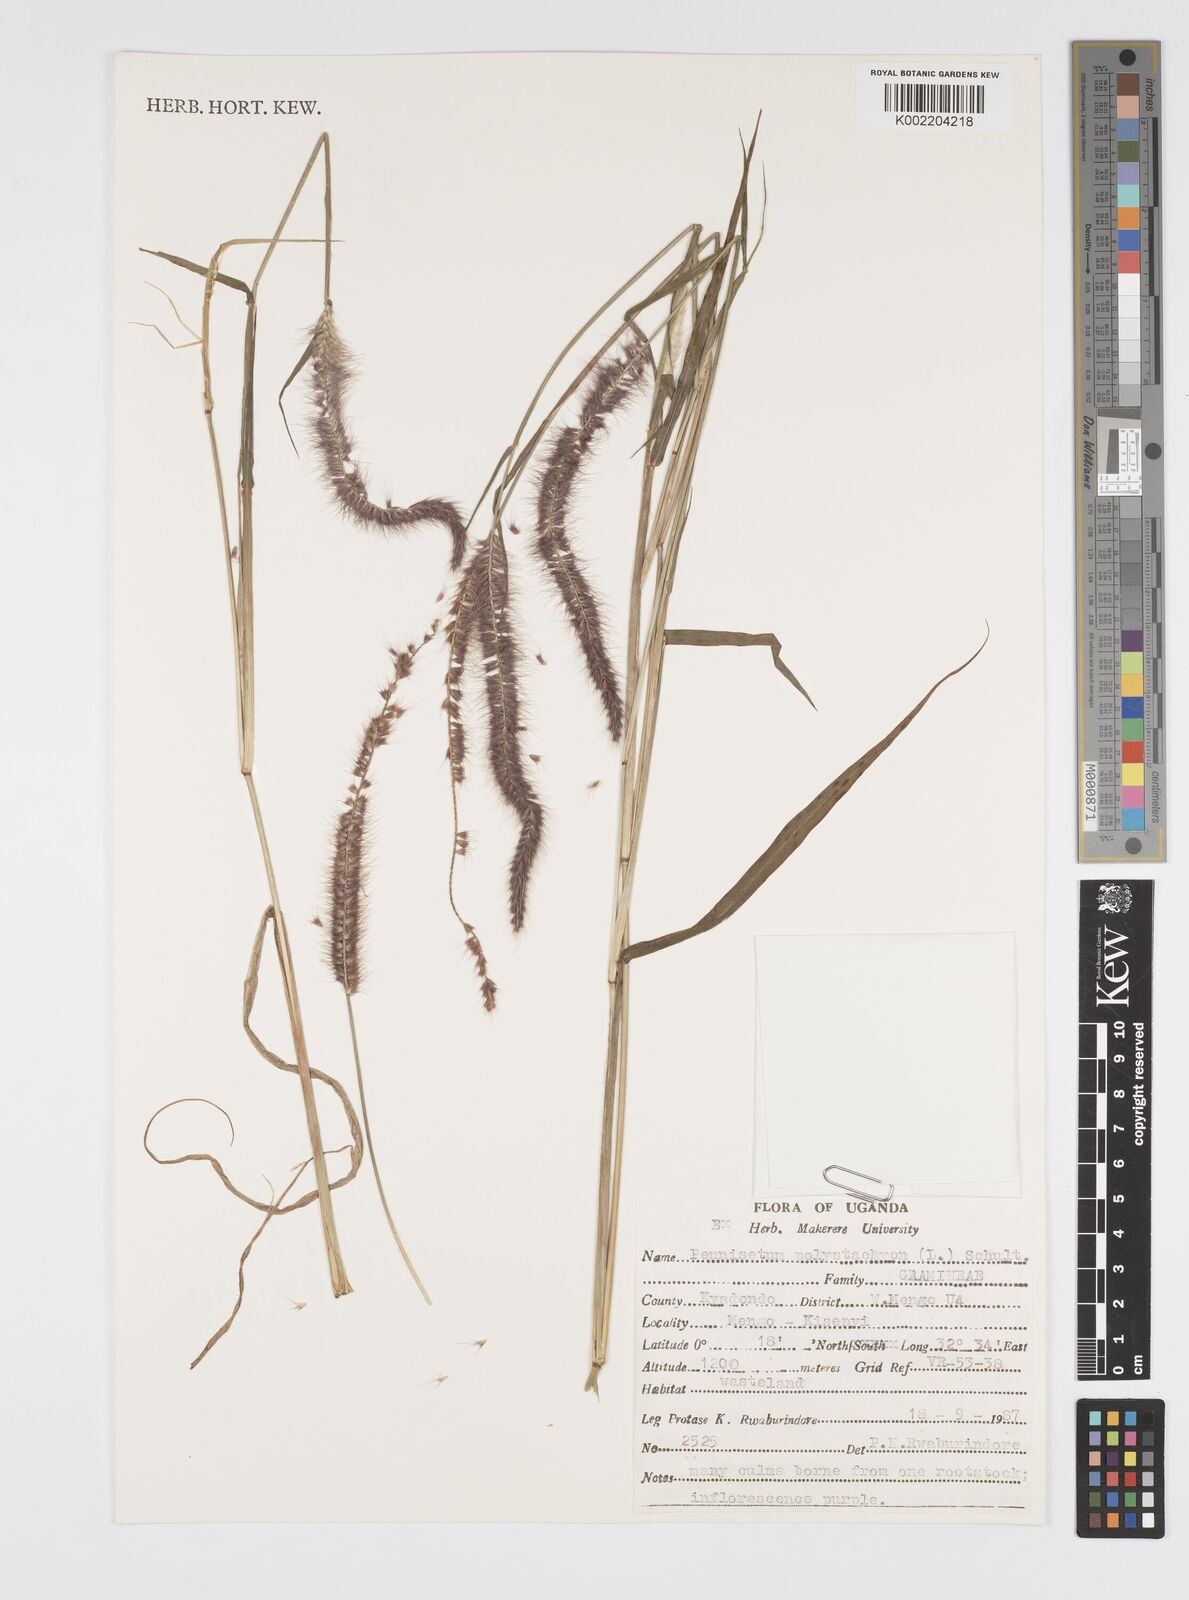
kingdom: Plantae
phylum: Tracheophyta
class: Liliopsida
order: Poales
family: Poaceae
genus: Setaria
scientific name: Setaria parviflora
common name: Knotroot bristle-grass
